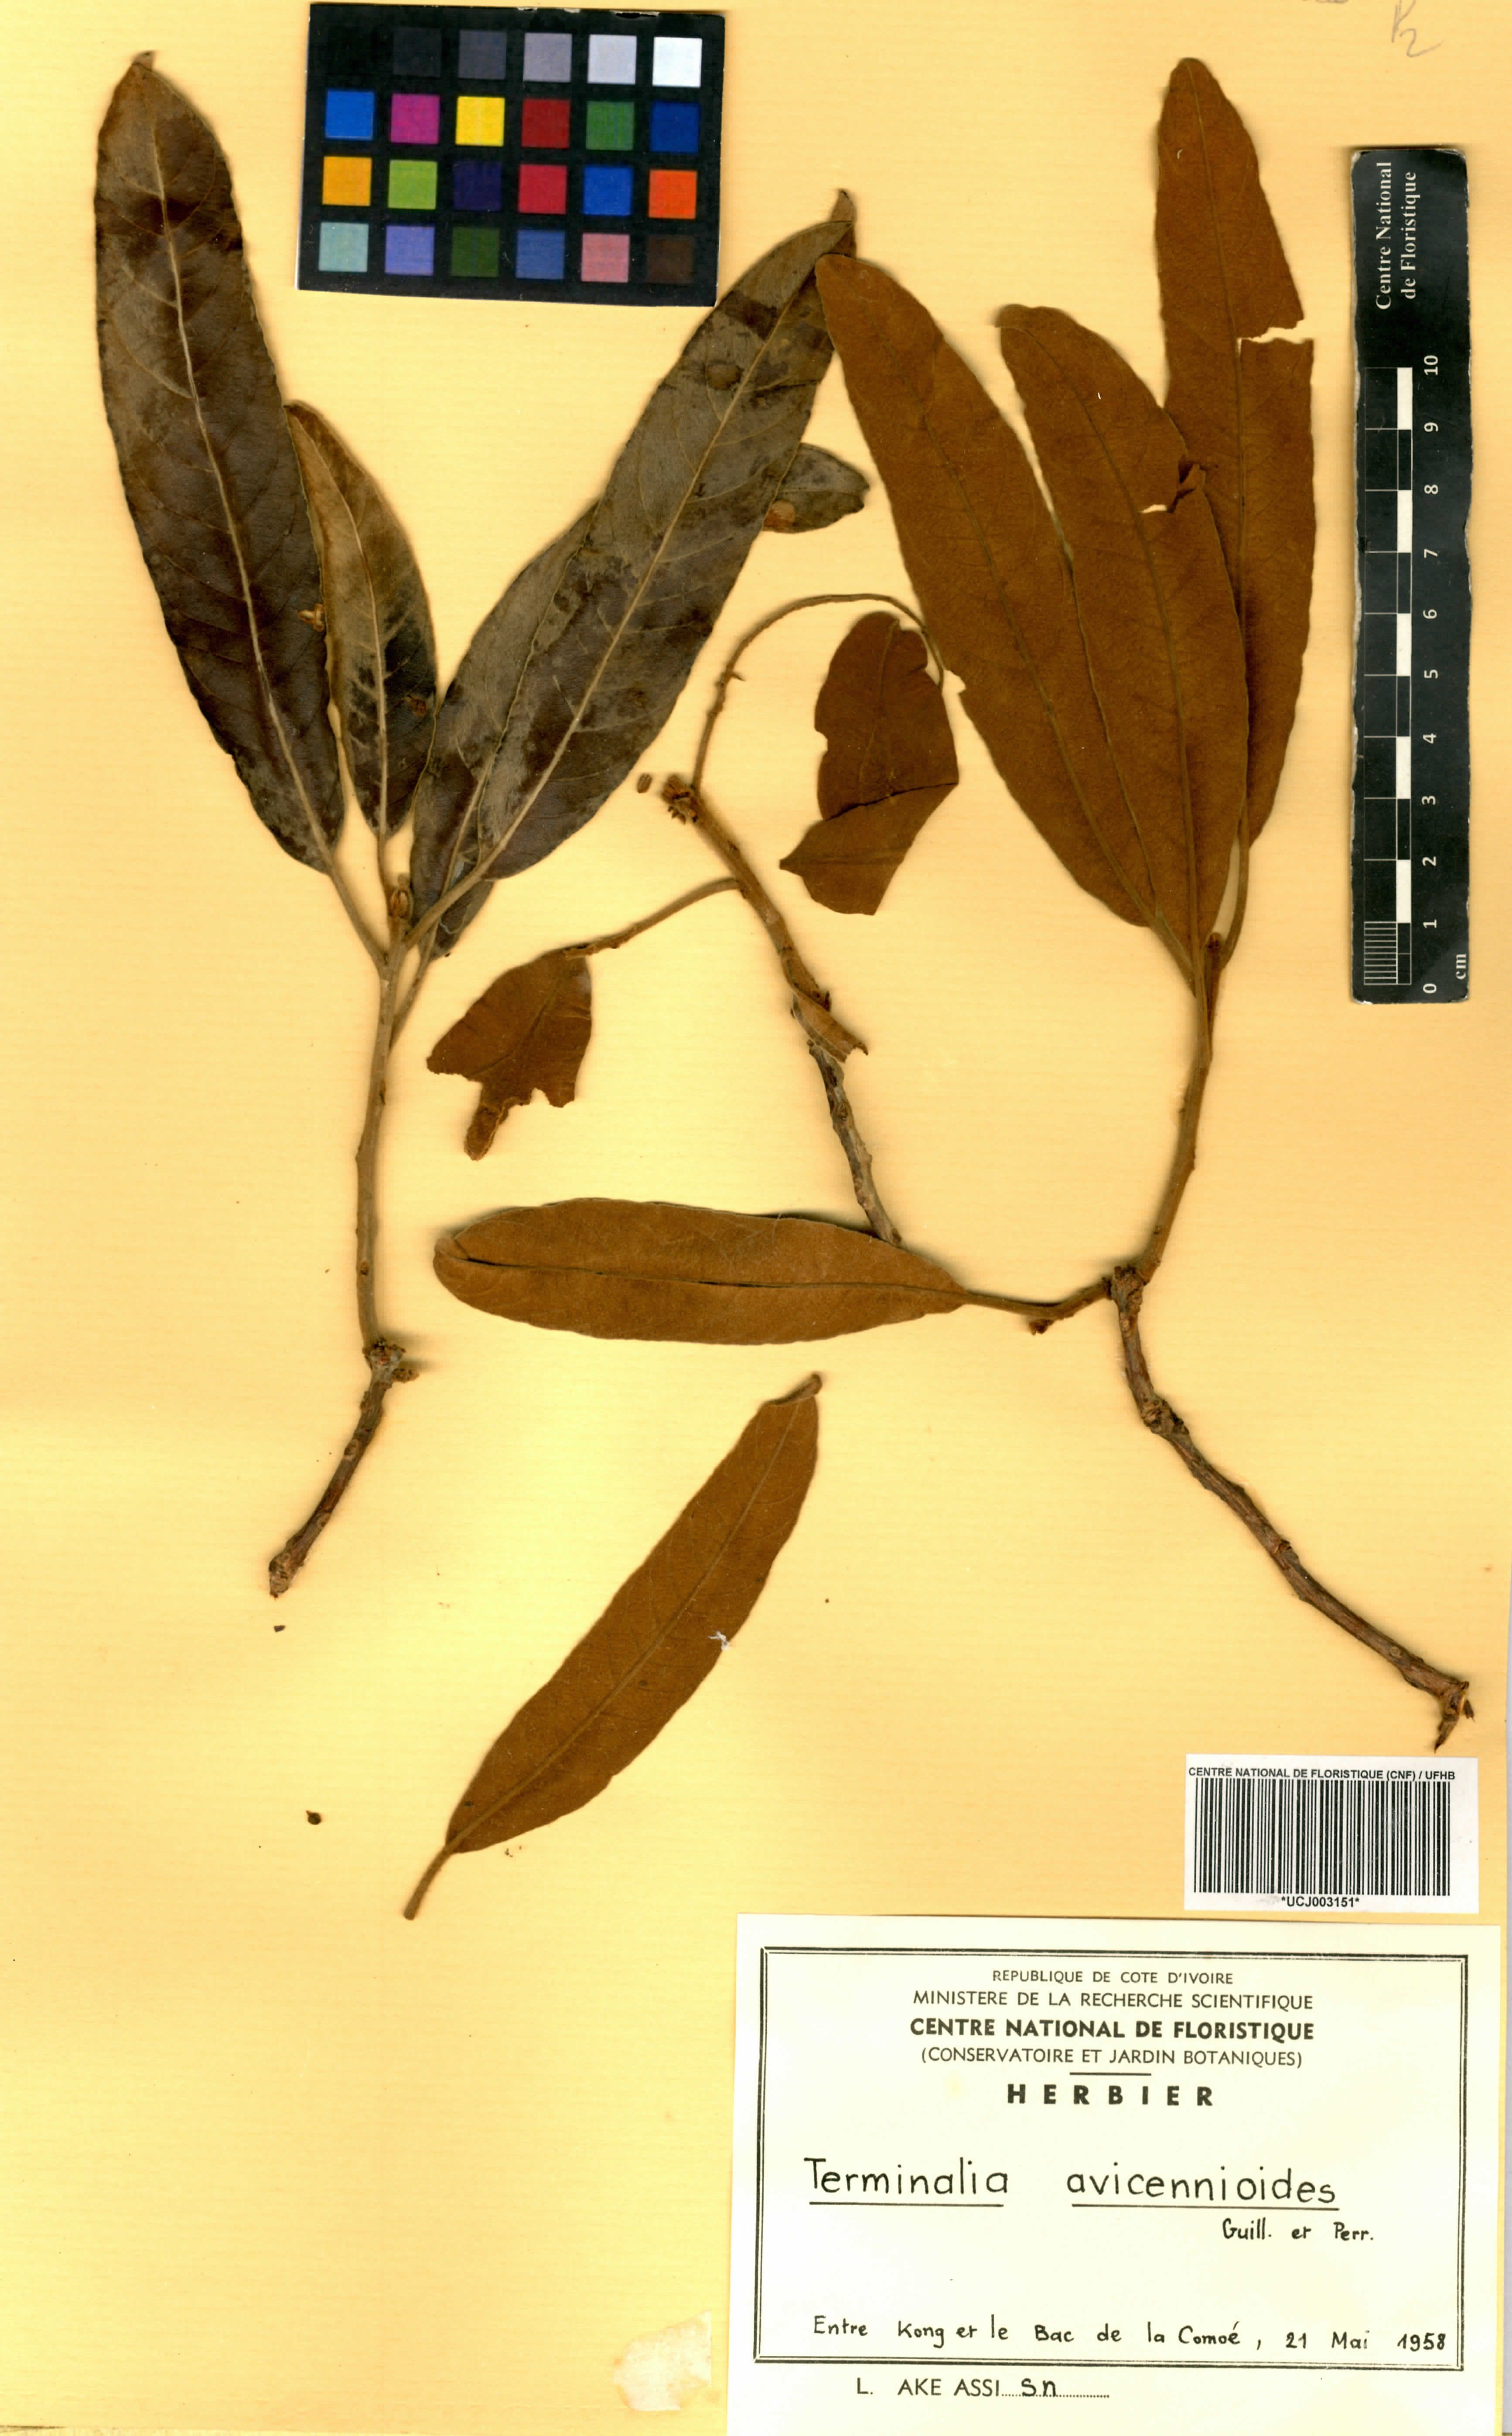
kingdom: Plantae
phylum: Tracheophyta
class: Magnoliopsida
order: Myrtales
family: Combretaceae
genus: Terminalia
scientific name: Terminalia avicennioides
